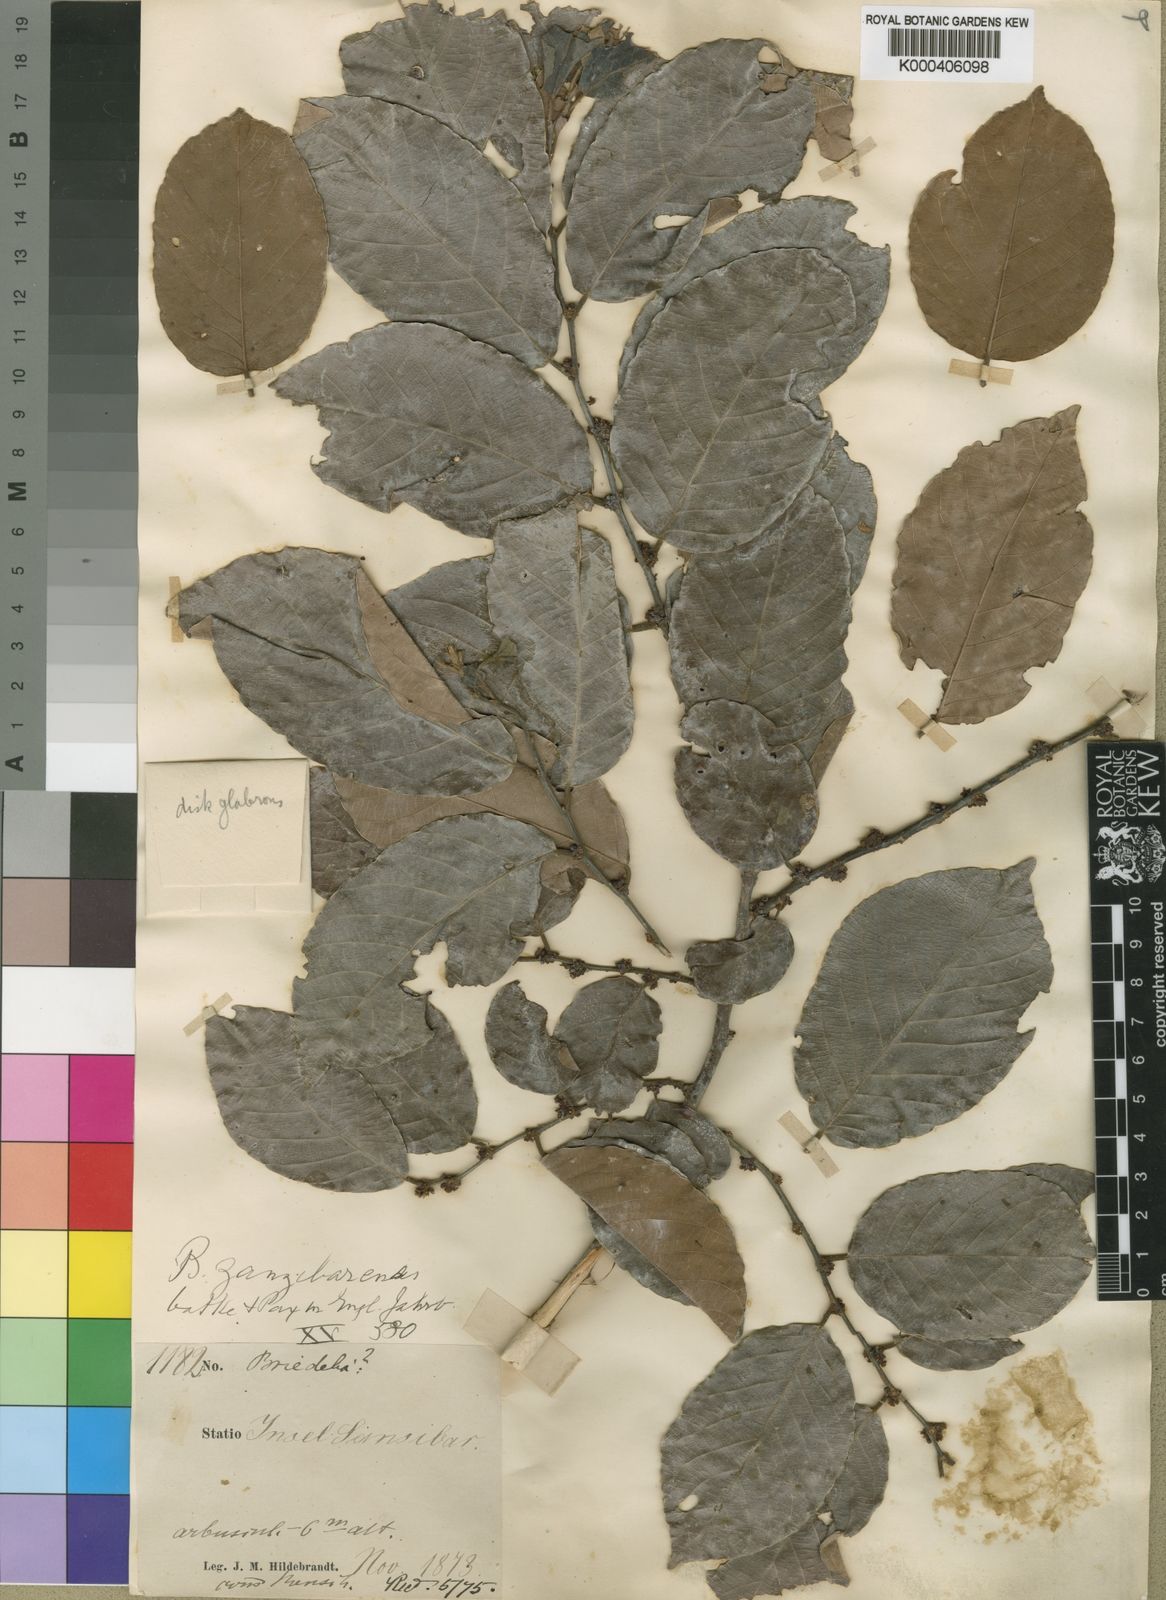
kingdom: Plantae
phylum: Tracheophyta
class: Magnoliopsida
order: Malpighiales
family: Phyllanthaceae
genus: Bridelia
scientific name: Bridelia micrantha
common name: Bridelia
